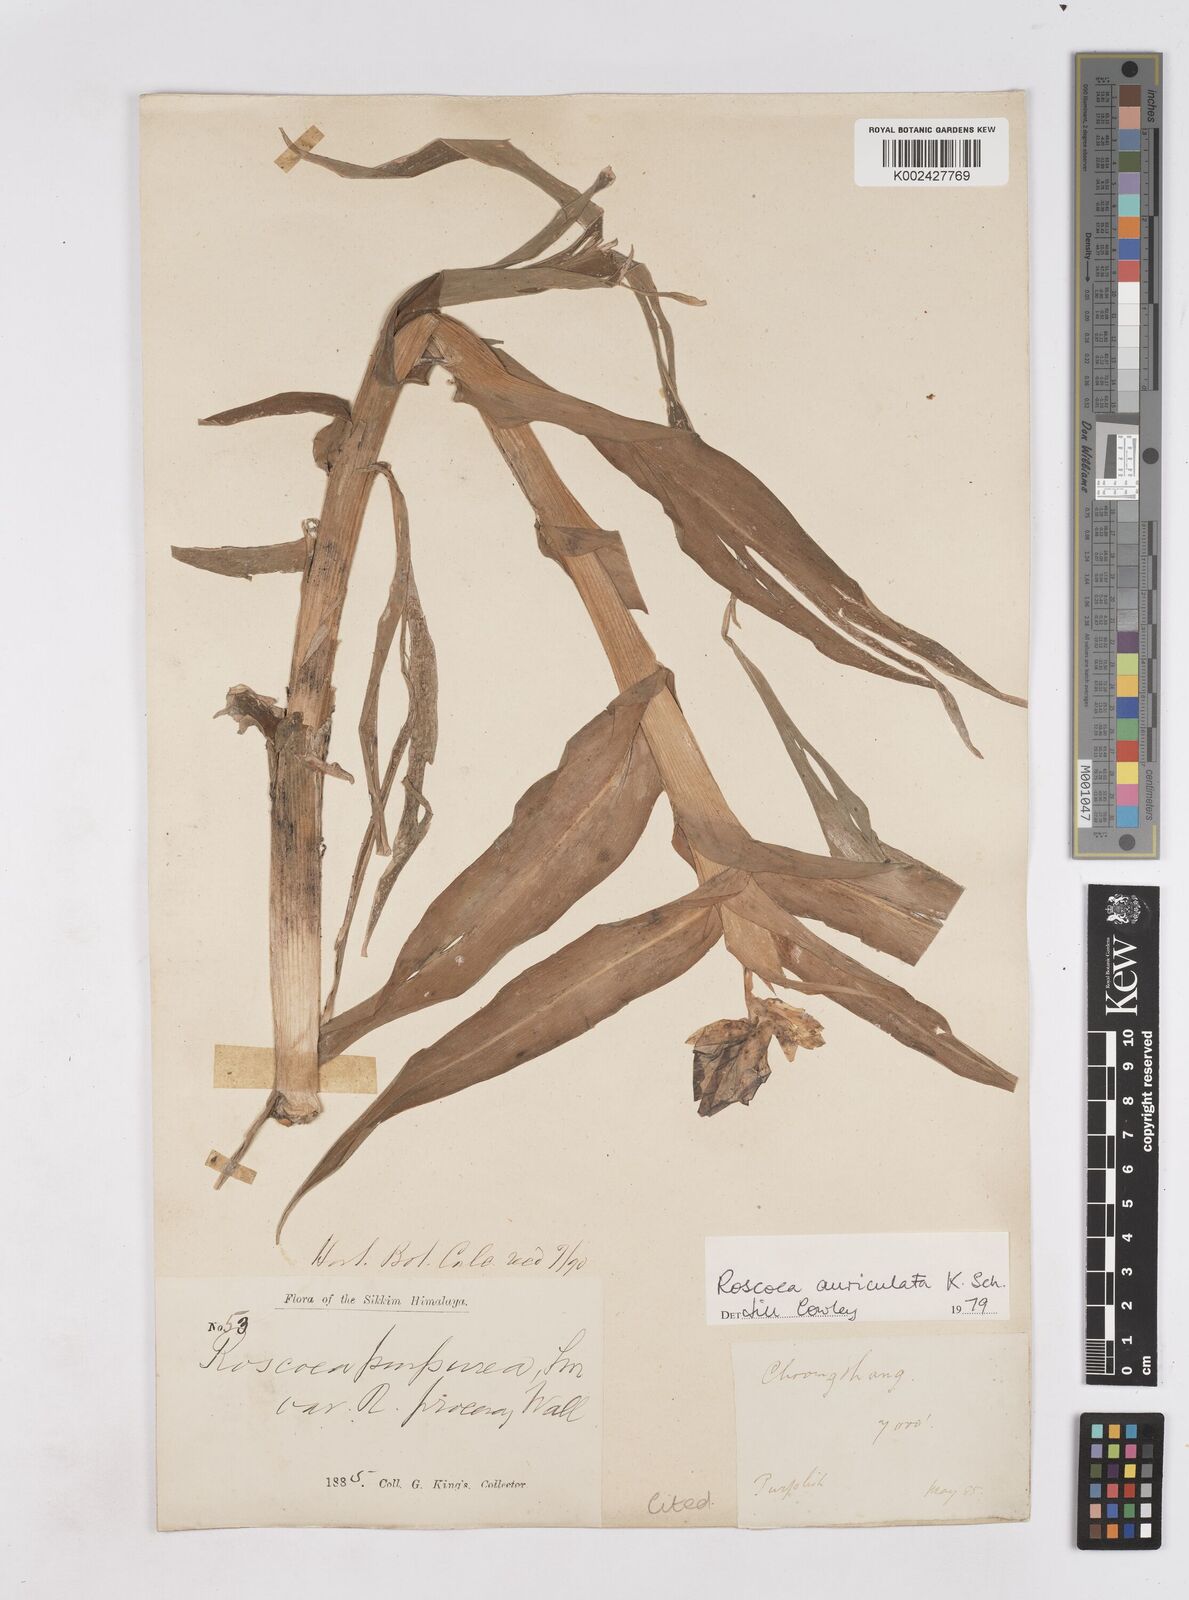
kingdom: Plantae
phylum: Tracheophyta
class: Liliopsida
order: Zingiberales
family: Zingiberaceae
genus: Roscoea
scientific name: Roscoea auriculata
